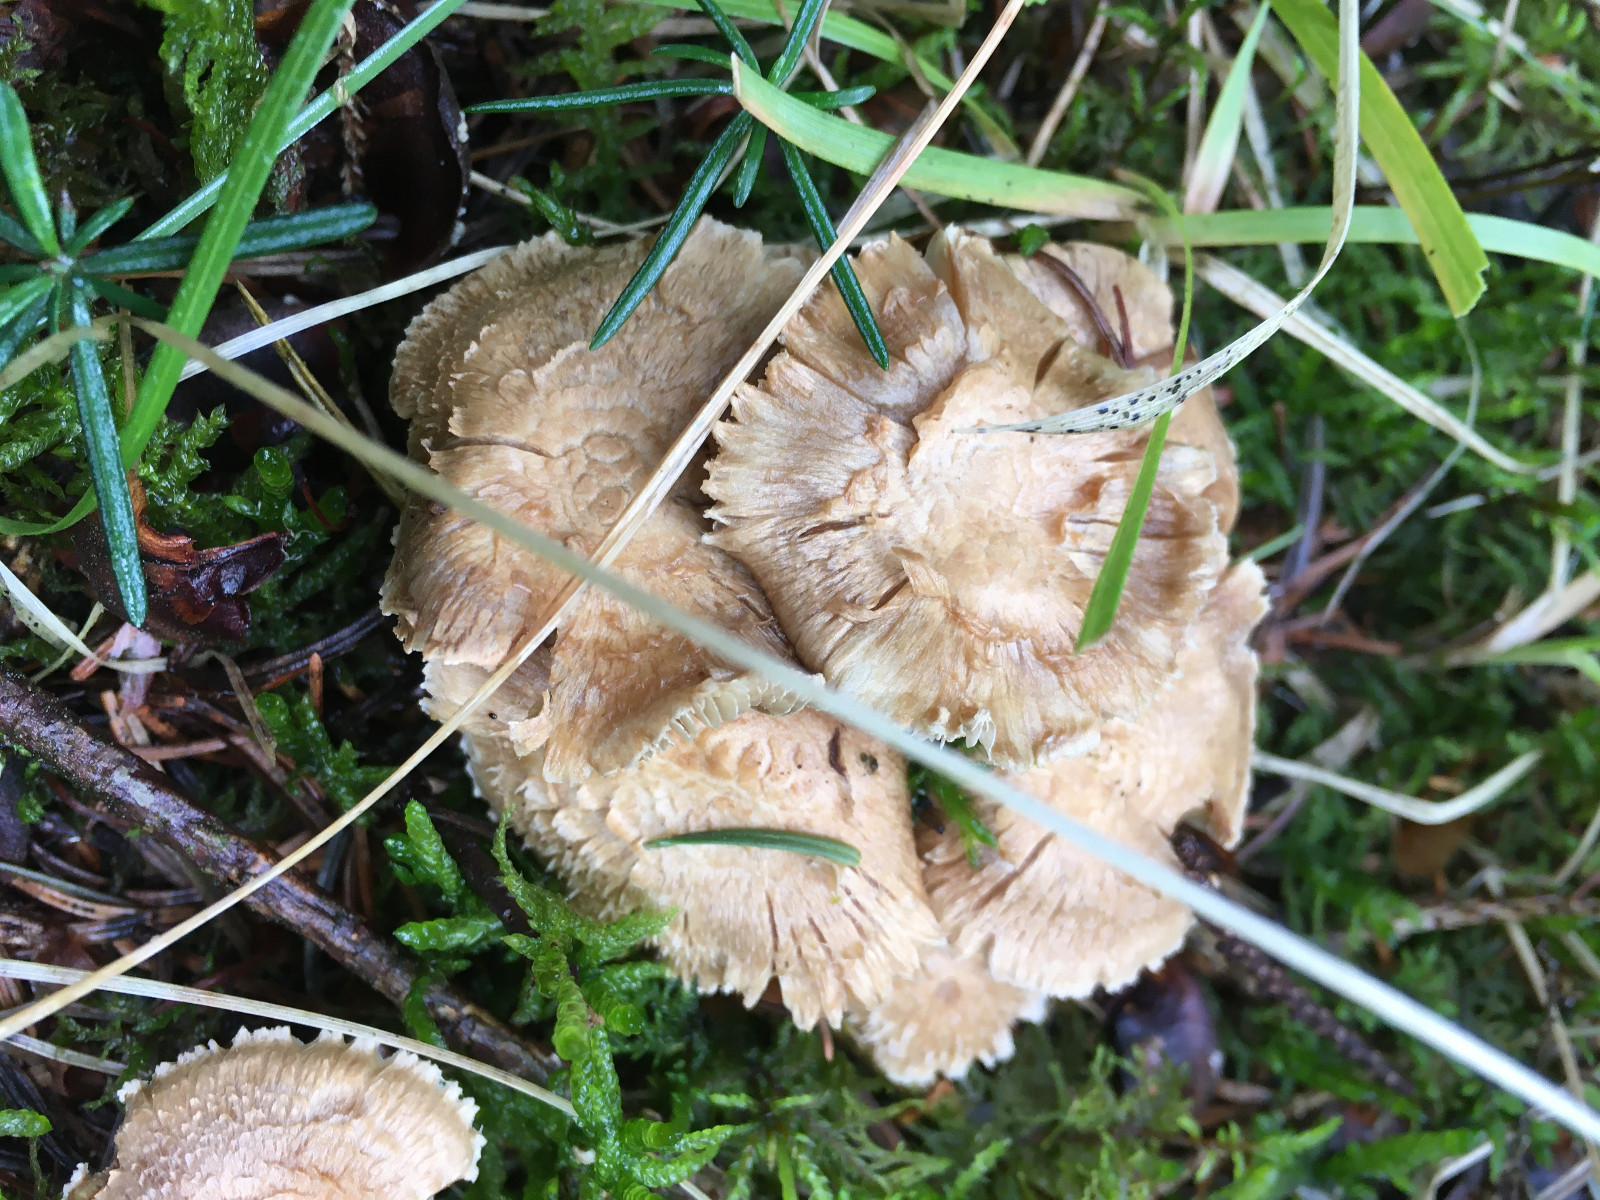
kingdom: Fungi
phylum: Basidiomycota
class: Agaricomycetes
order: Agaricales
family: Inocybaceae
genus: Inocybe
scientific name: Inocybe
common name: trævlhat
